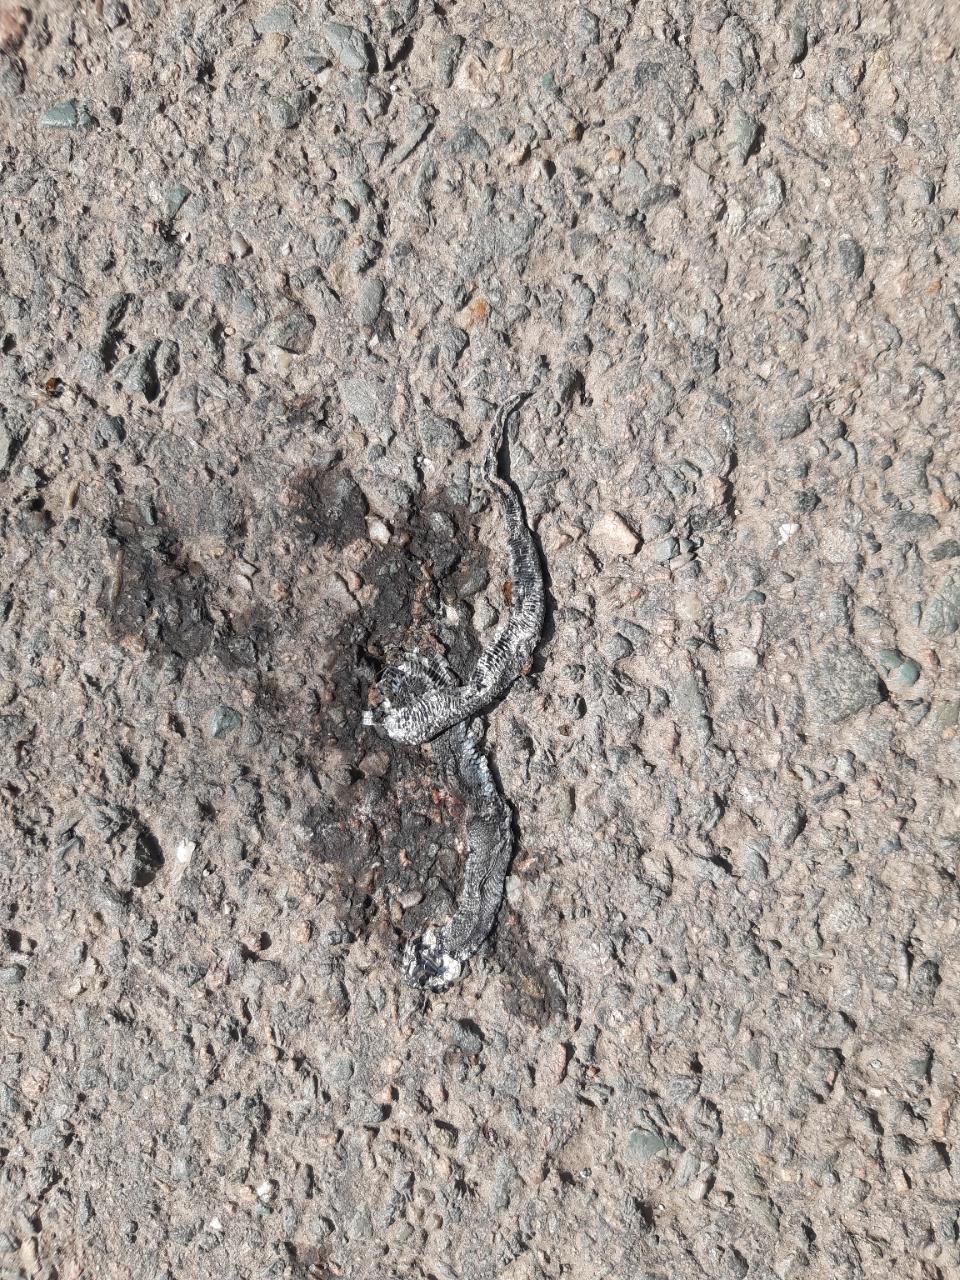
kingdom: Animalia
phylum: Chordata
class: Squamata
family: Colubridae
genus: Natrix
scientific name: Natrix natrix
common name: Grass snake
